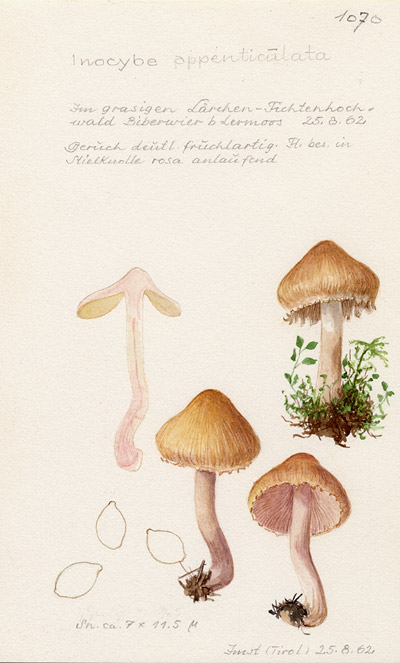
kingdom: Fungi
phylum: Basidiomycota
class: Agaricomycetes
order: Agaricales
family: Inocybaceae
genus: Inocybe
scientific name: Inocybe appendiculata
